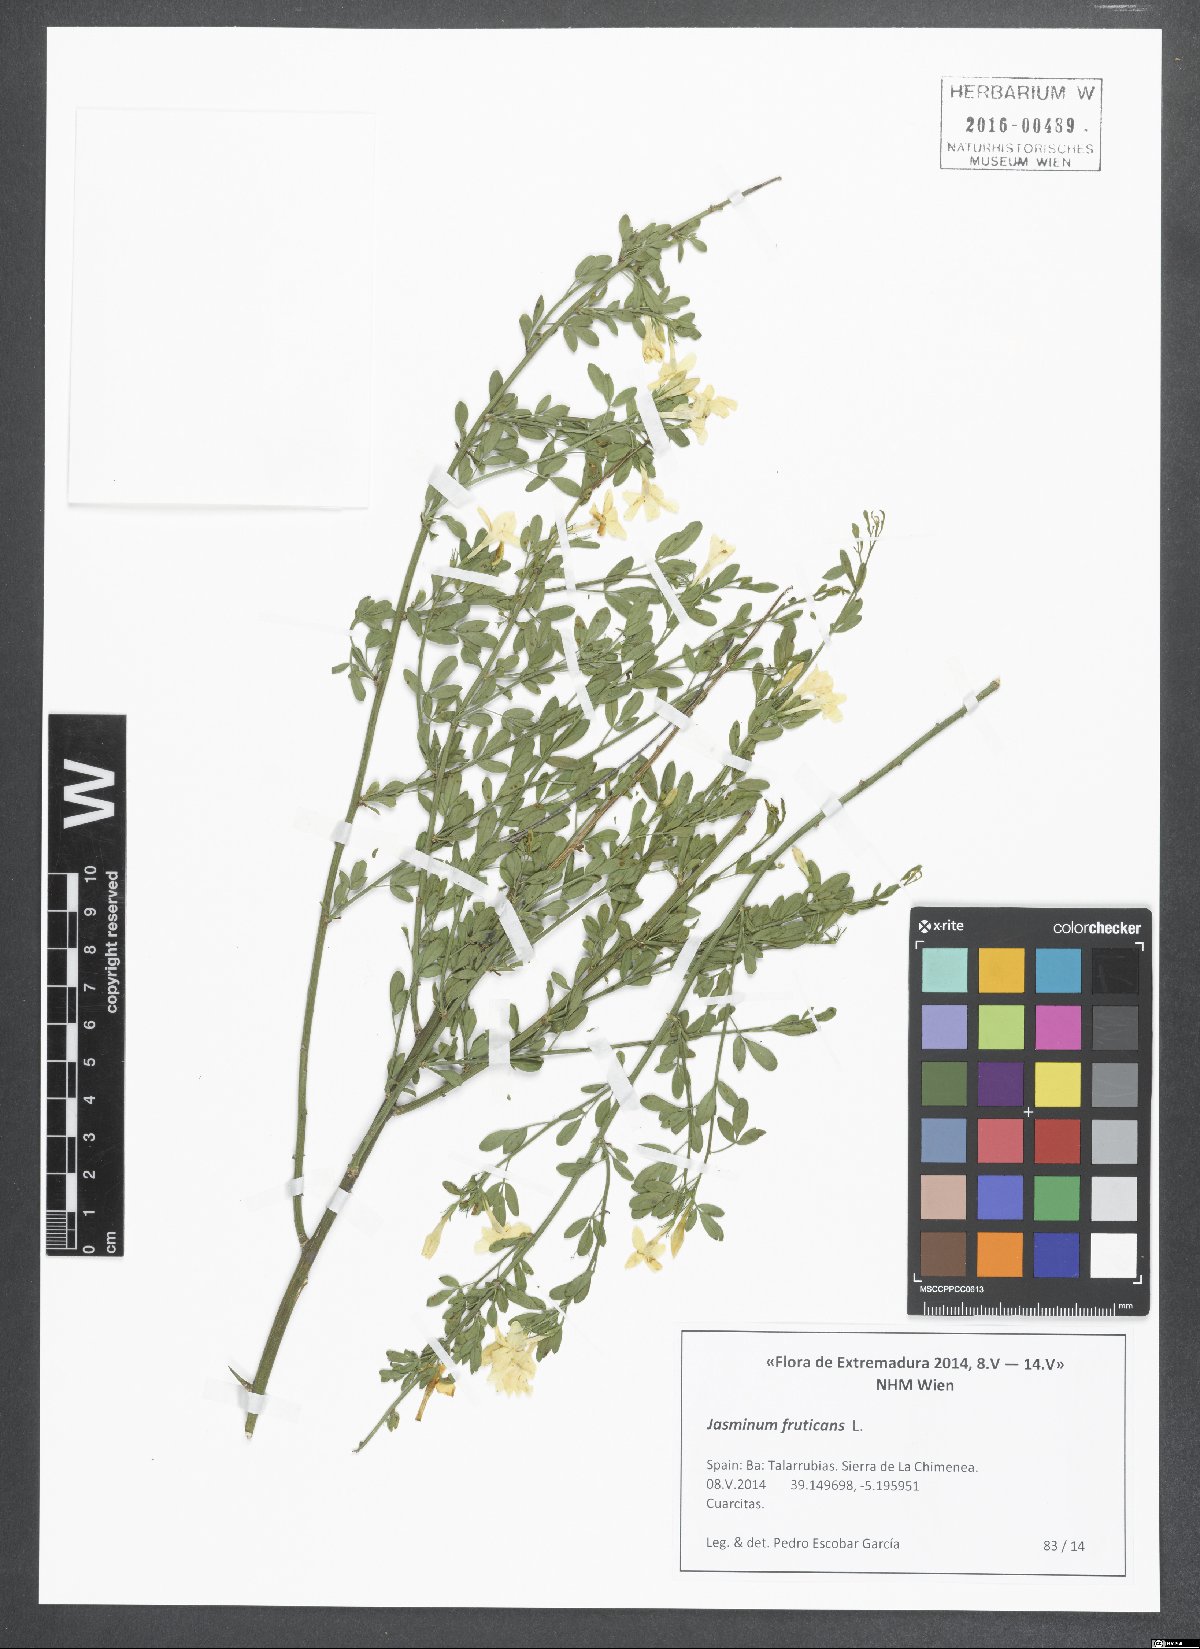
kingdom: Plantae
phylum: Tracheophyta
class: Magnoliopsida
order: Lamiales
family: Oleaceae
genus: Chrysojasminum
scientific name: Chrysojasminum fruticans
